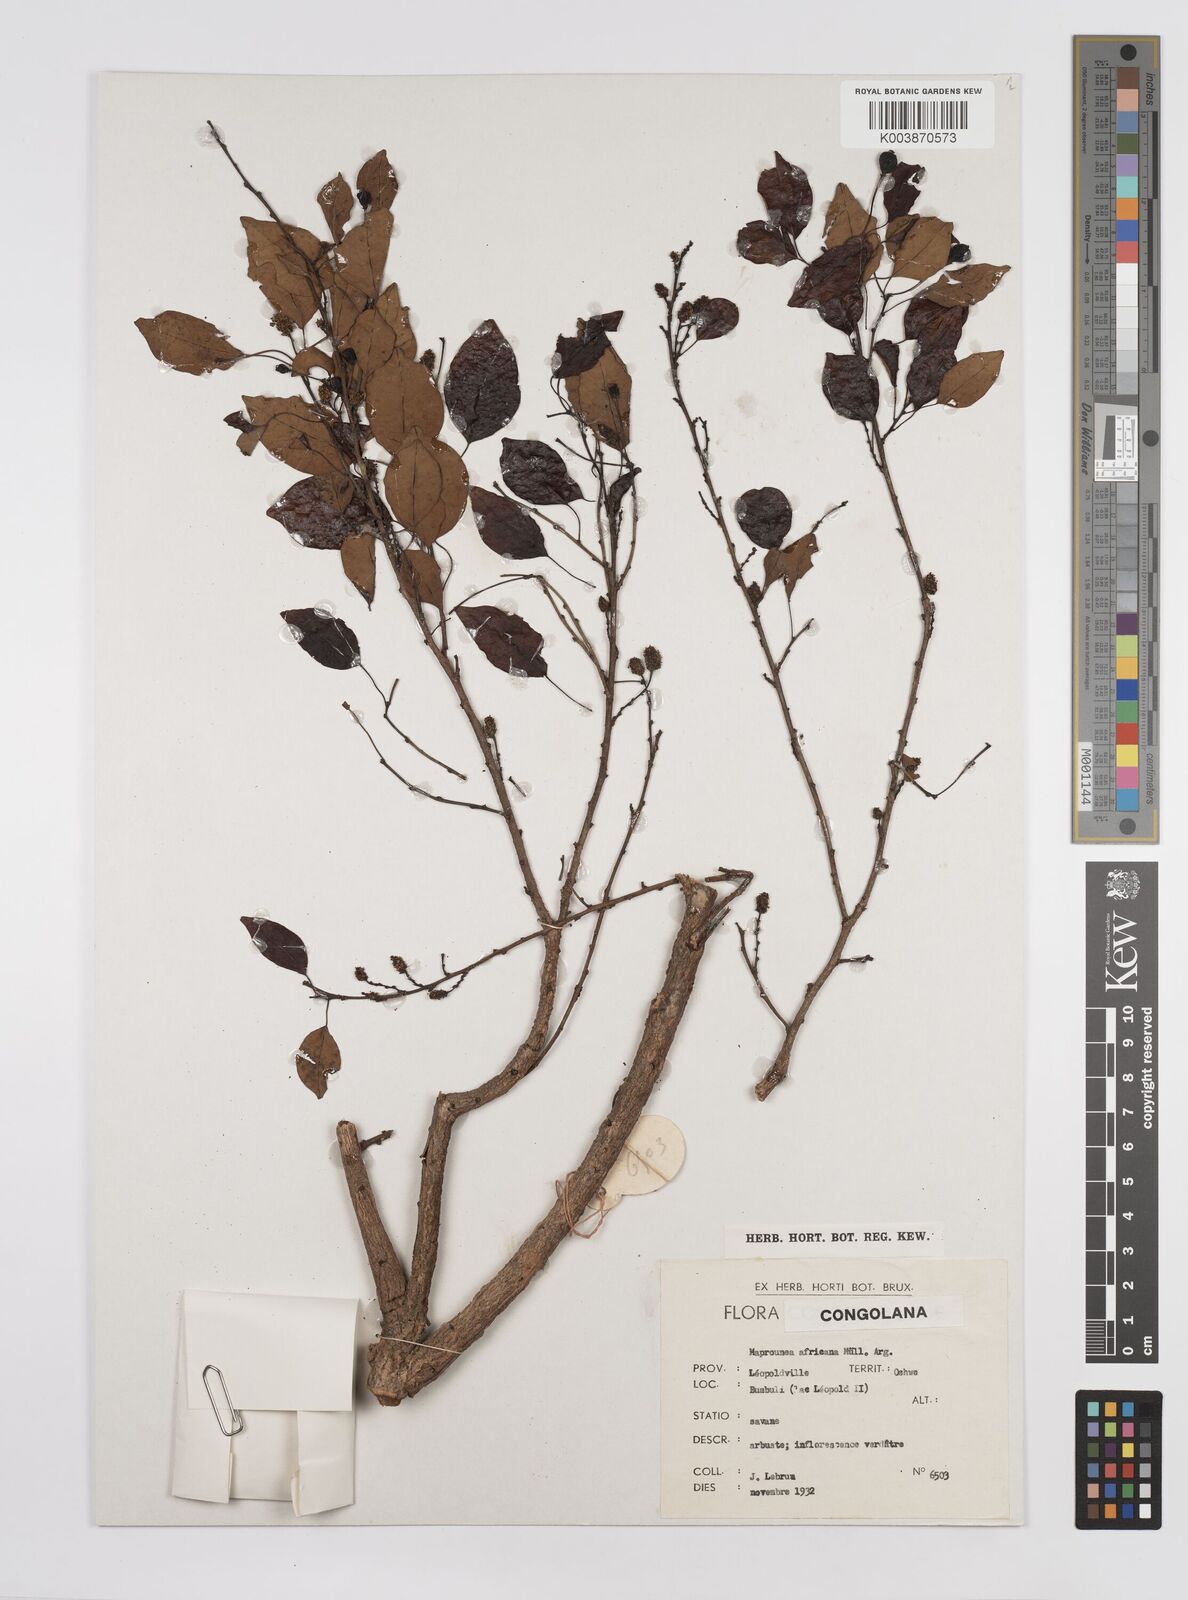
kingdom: Plantae
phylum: Tracheophyta
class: Magnoliopsida
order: Malpighiales
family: Euphorbiaceae
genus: Maprounea
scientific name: Maprounea africana
